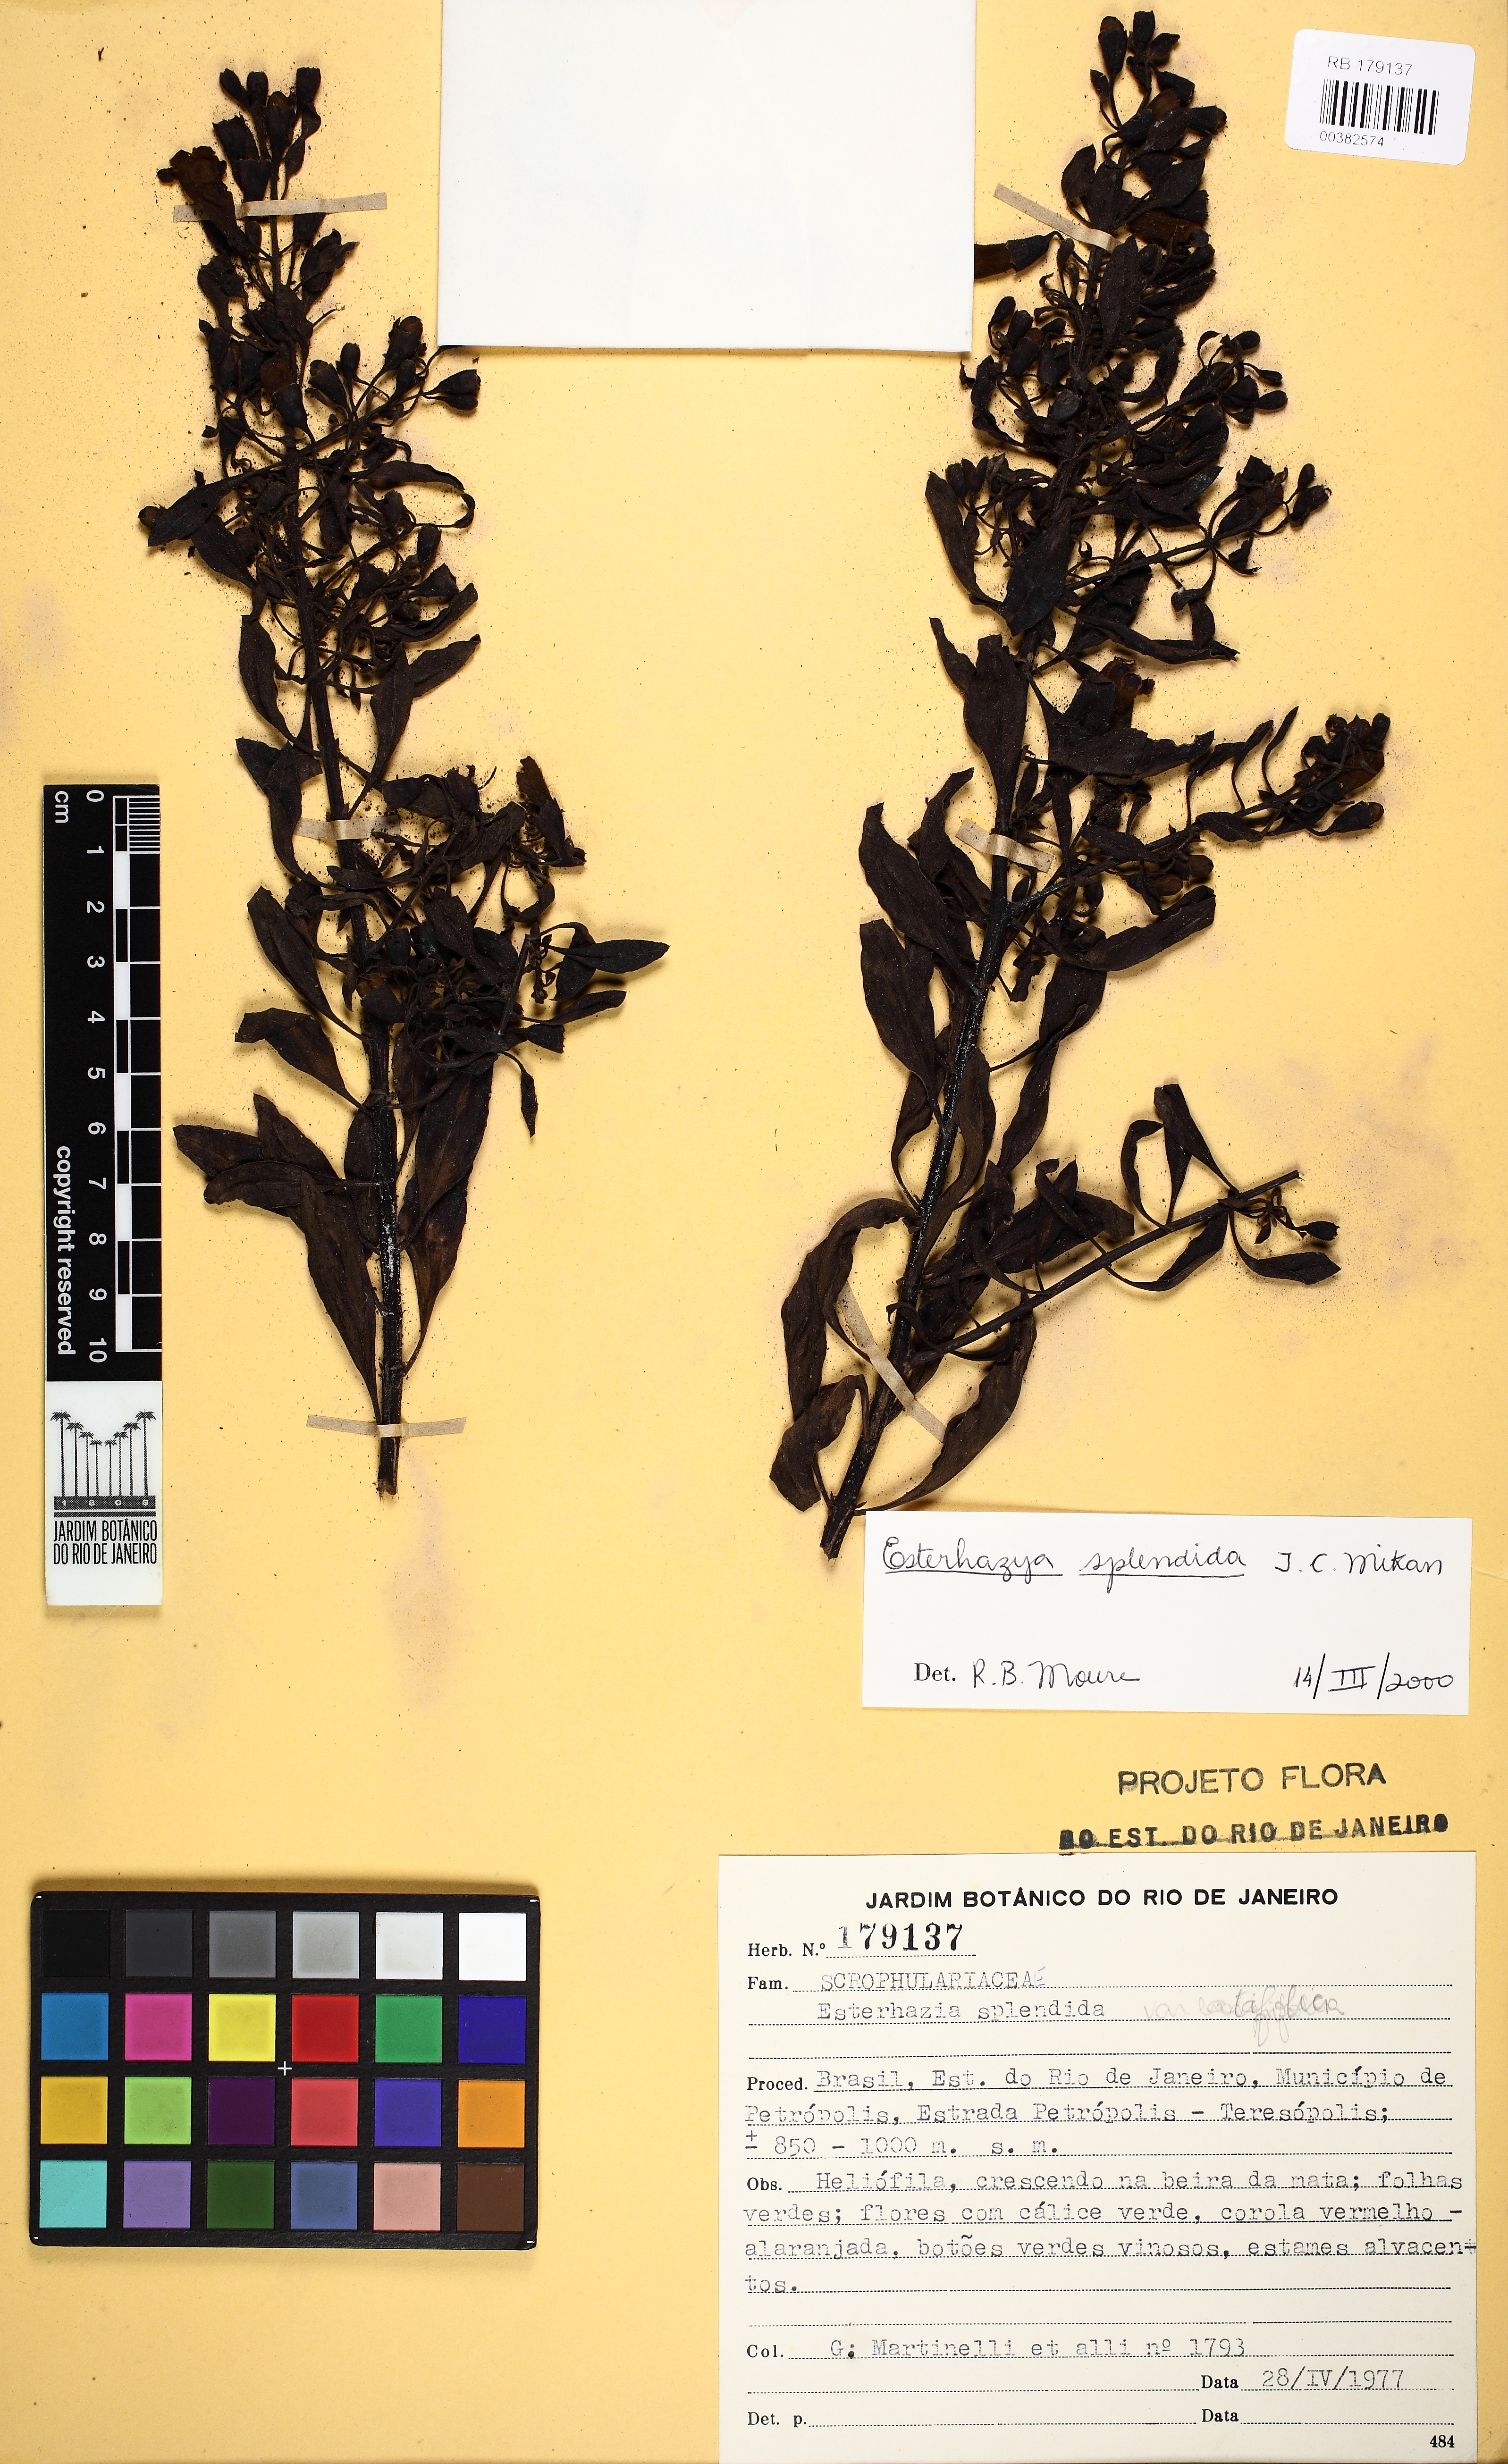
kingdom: Plantae
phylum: Tracheophyta
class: Magnoliopsida
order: Lamiales
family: Orobanchaceae
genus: Esterhazya
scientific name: Esterhazya splendida
